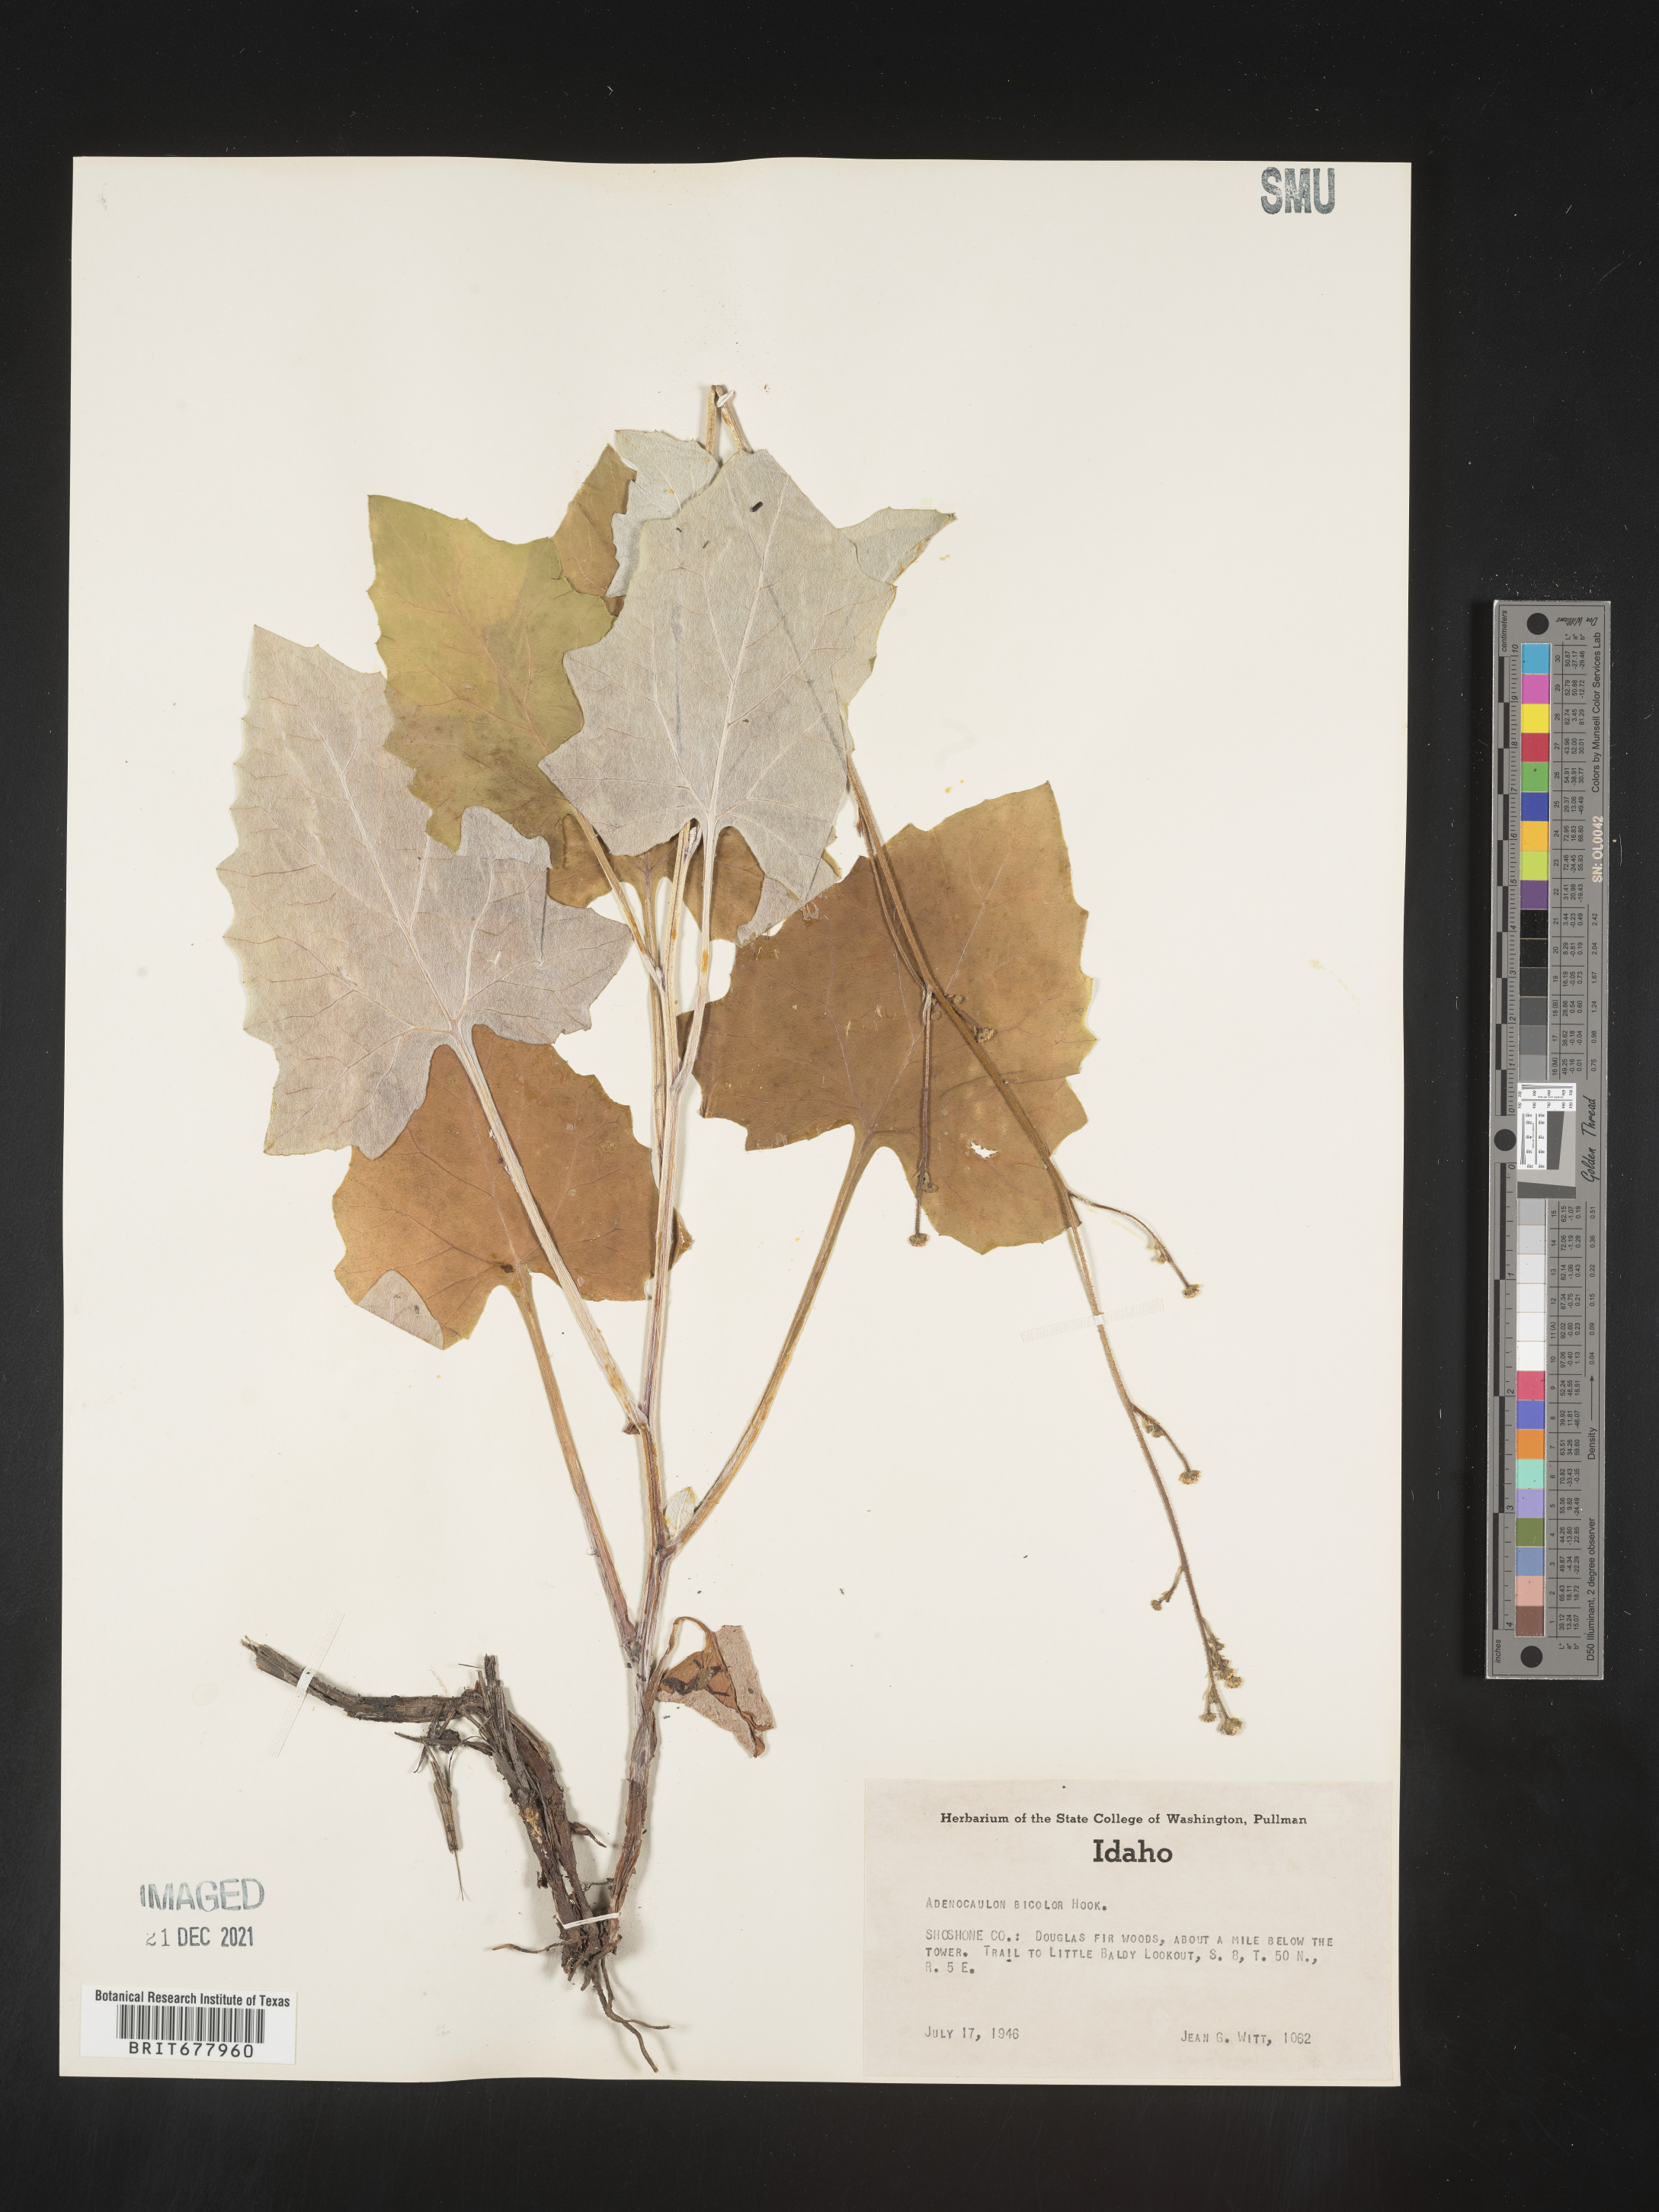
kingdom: Plantae
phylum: Tracheophyta
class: Magnoliopsida
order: Asterales
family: Asteraceae
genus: Adenocaulon
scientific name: Adenocaulon
